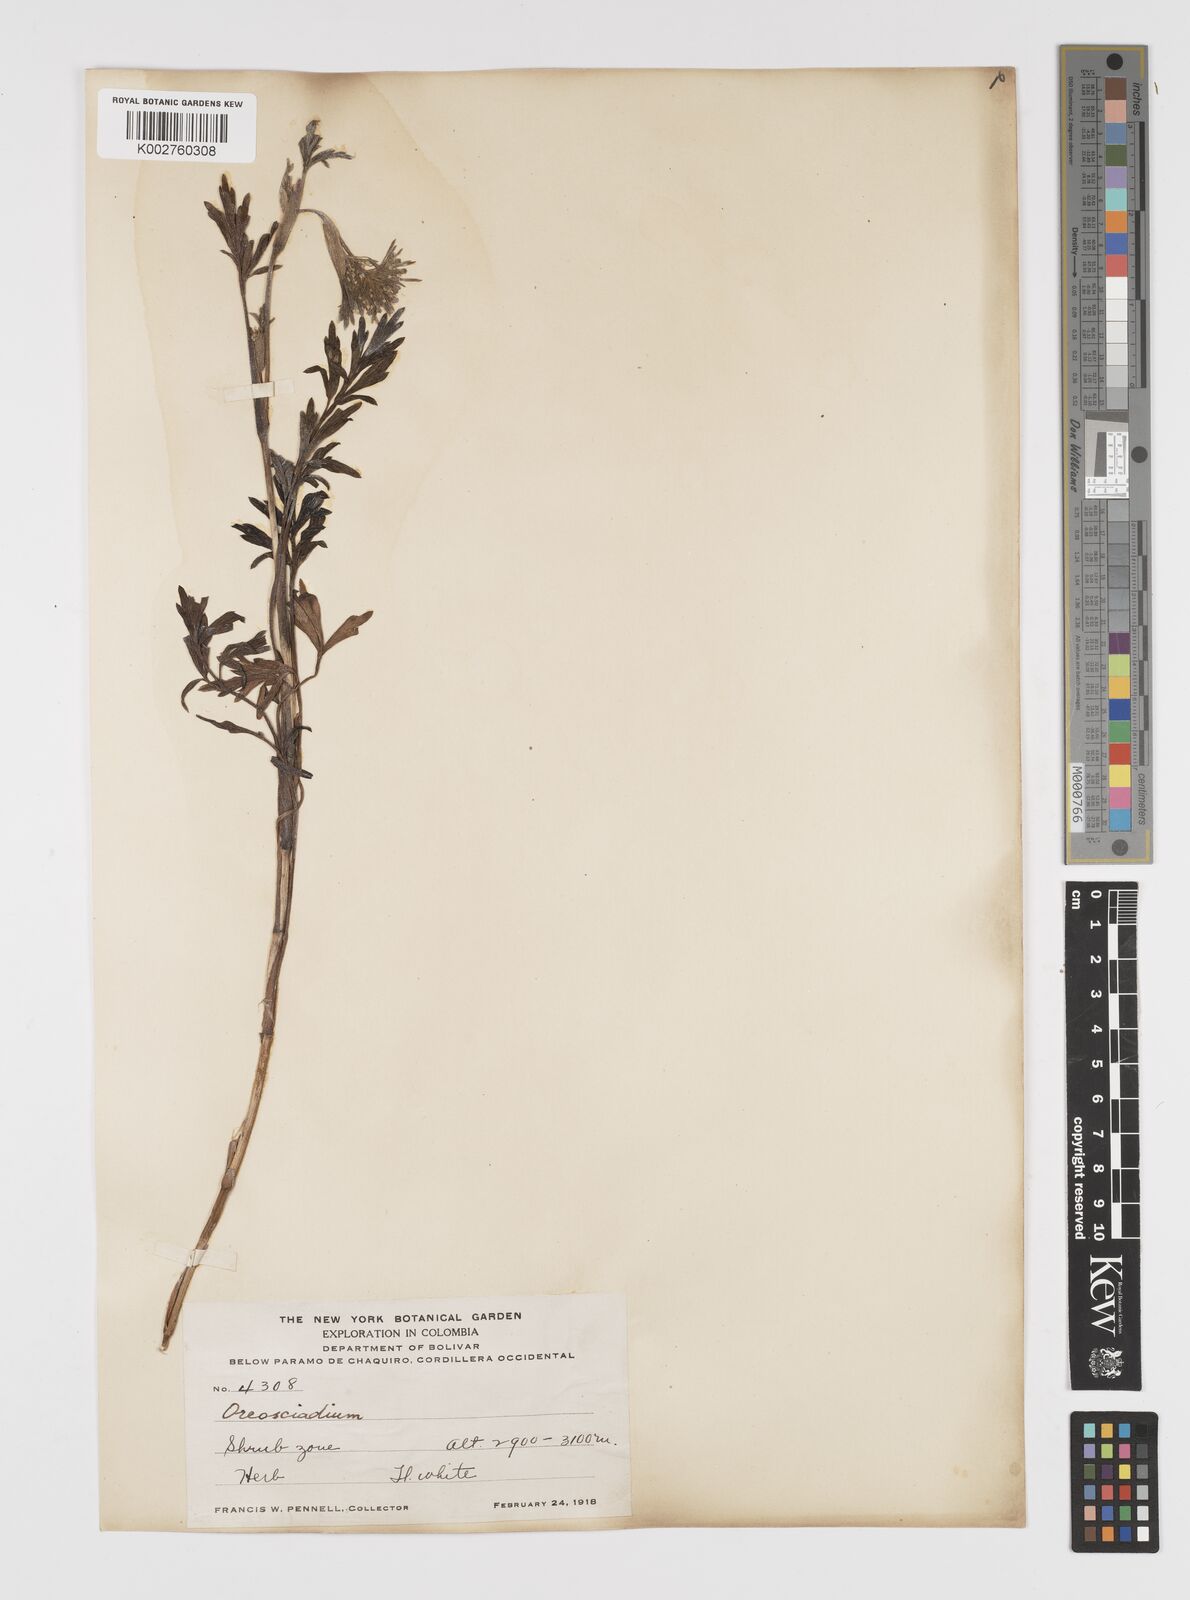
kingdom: Plantae
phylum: Tracheophyta
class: Magnoliopsida
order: Apiales
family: Apiaceae
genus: Niphogeton
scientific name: Niphogeton ternata
